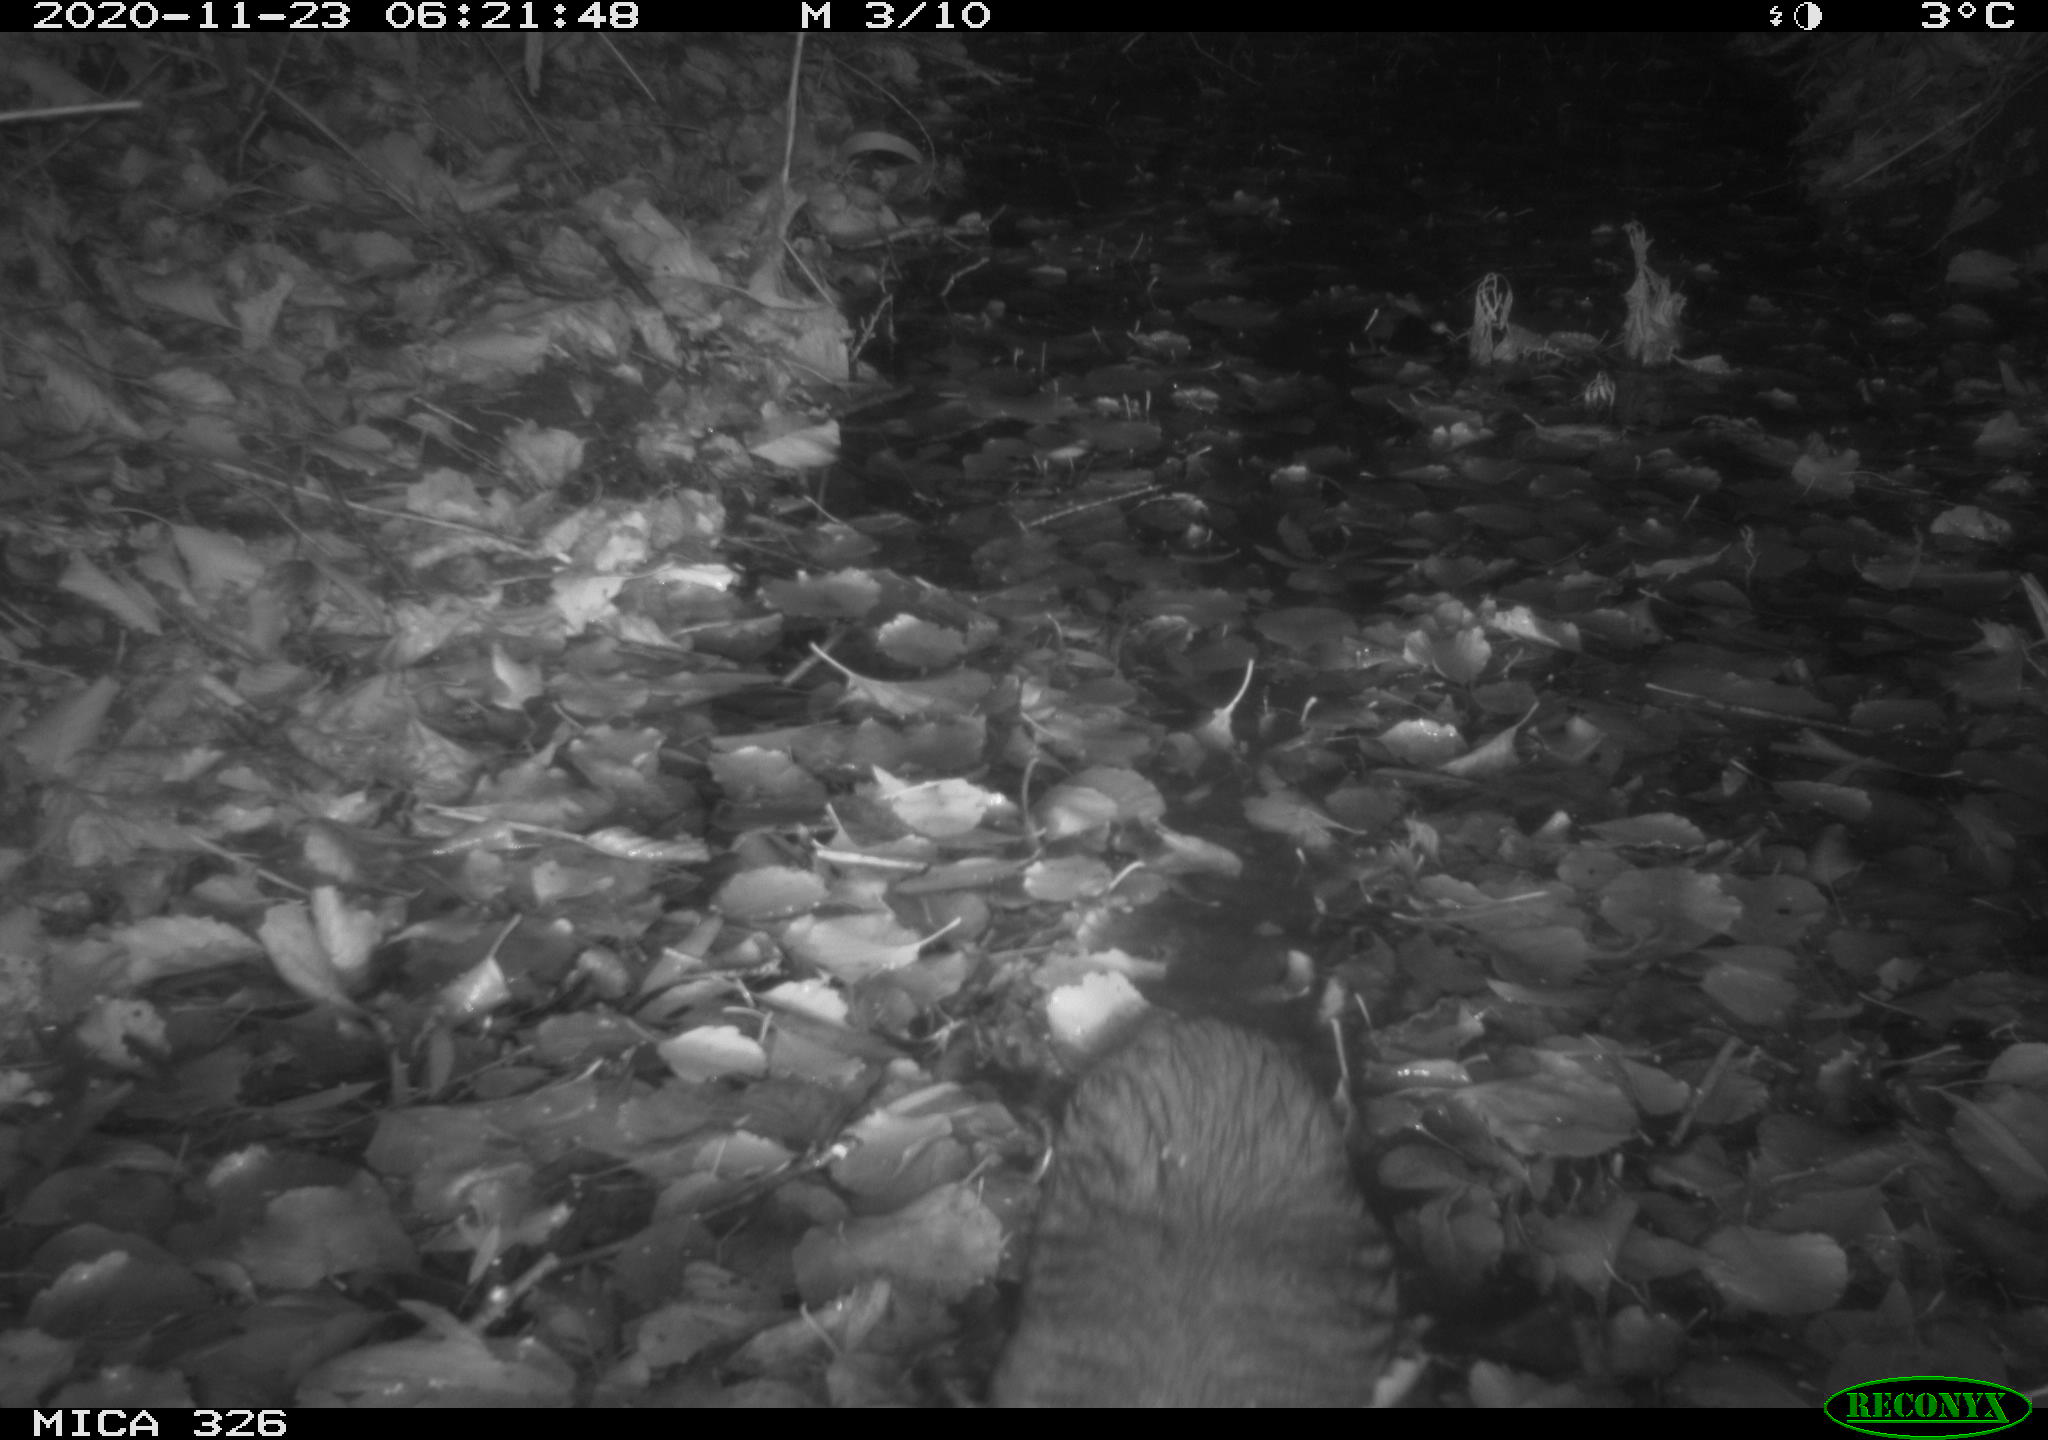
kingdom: Animalia
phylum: Chordata
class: Mammalia
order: Rodentia
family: Myocastoridae
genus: Myocastor
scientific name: Myocastor coypus
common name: Coypu
